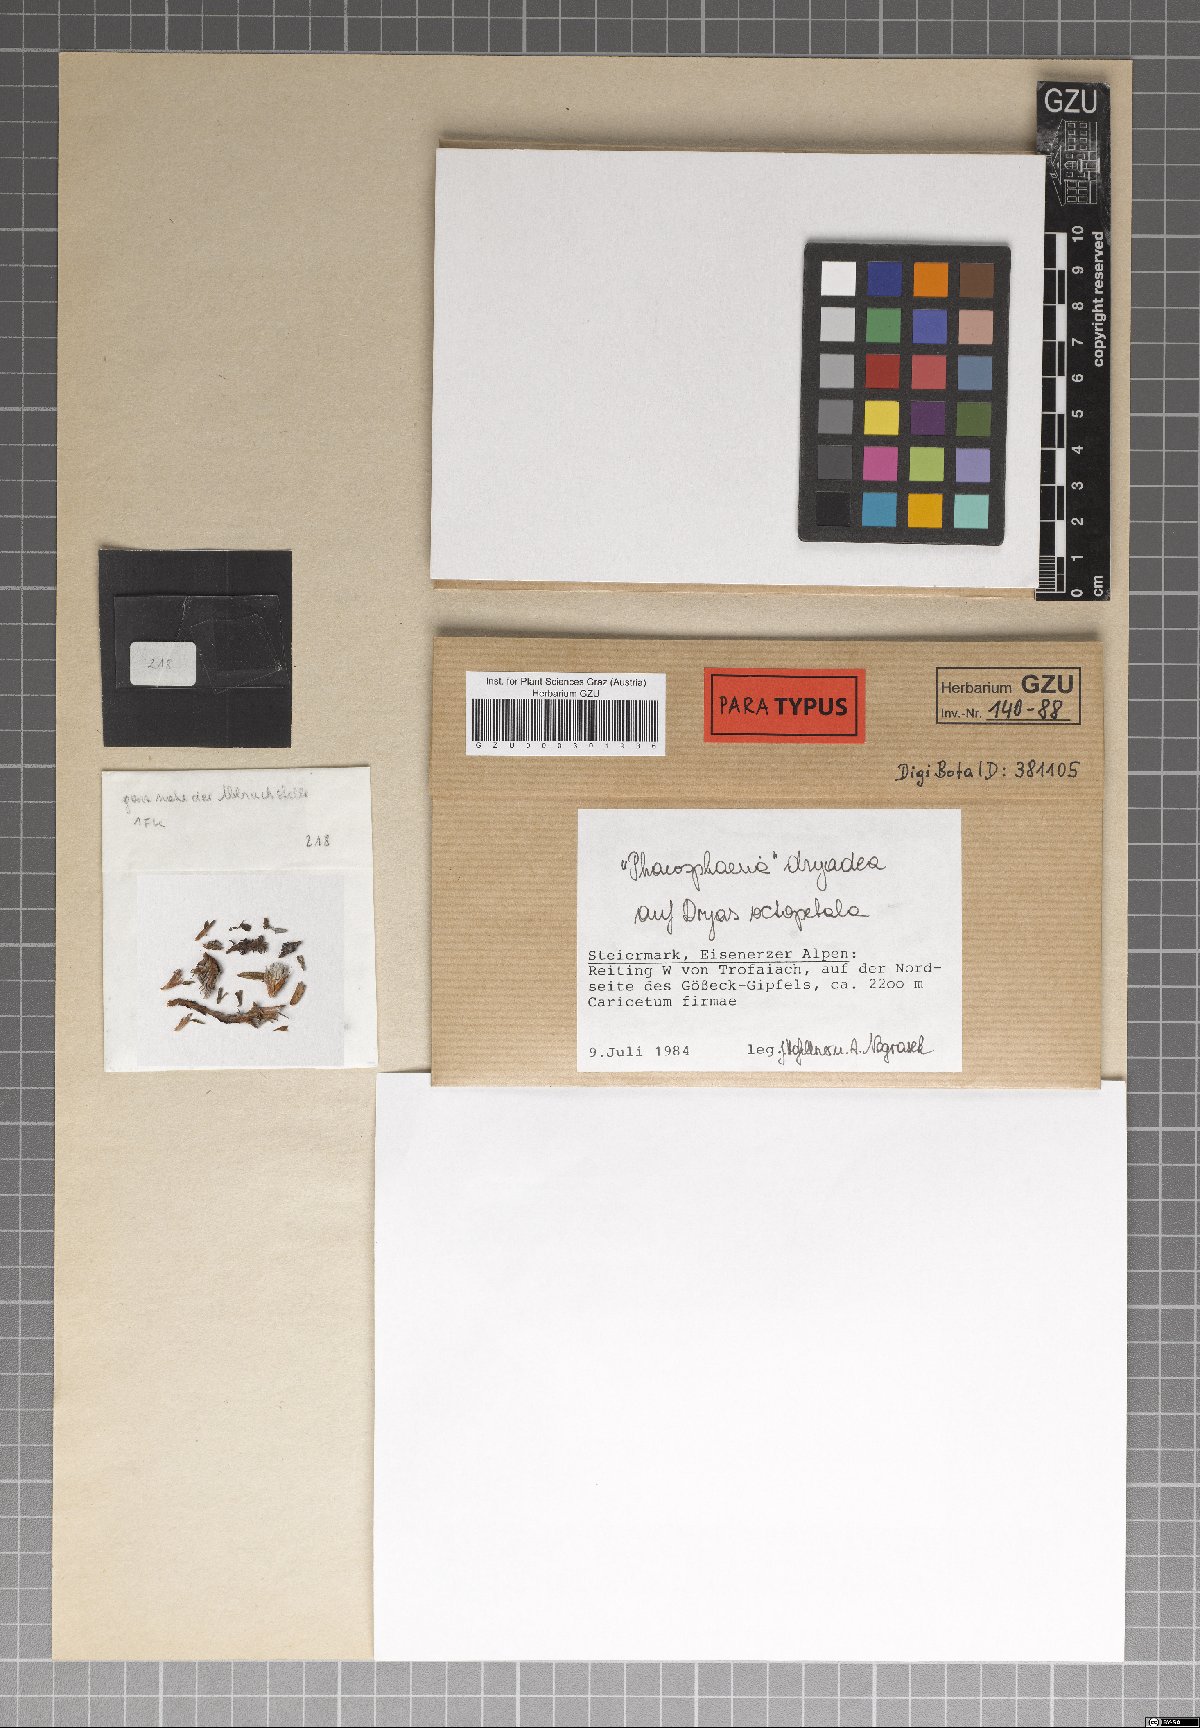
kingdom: Fungi
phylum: Ascomycota
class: Dothideomycetes
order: Pleosporales
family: Phaeosphaeriaceae
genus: Phaeosphaeria
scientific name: Phaeosphaeria dryadis
